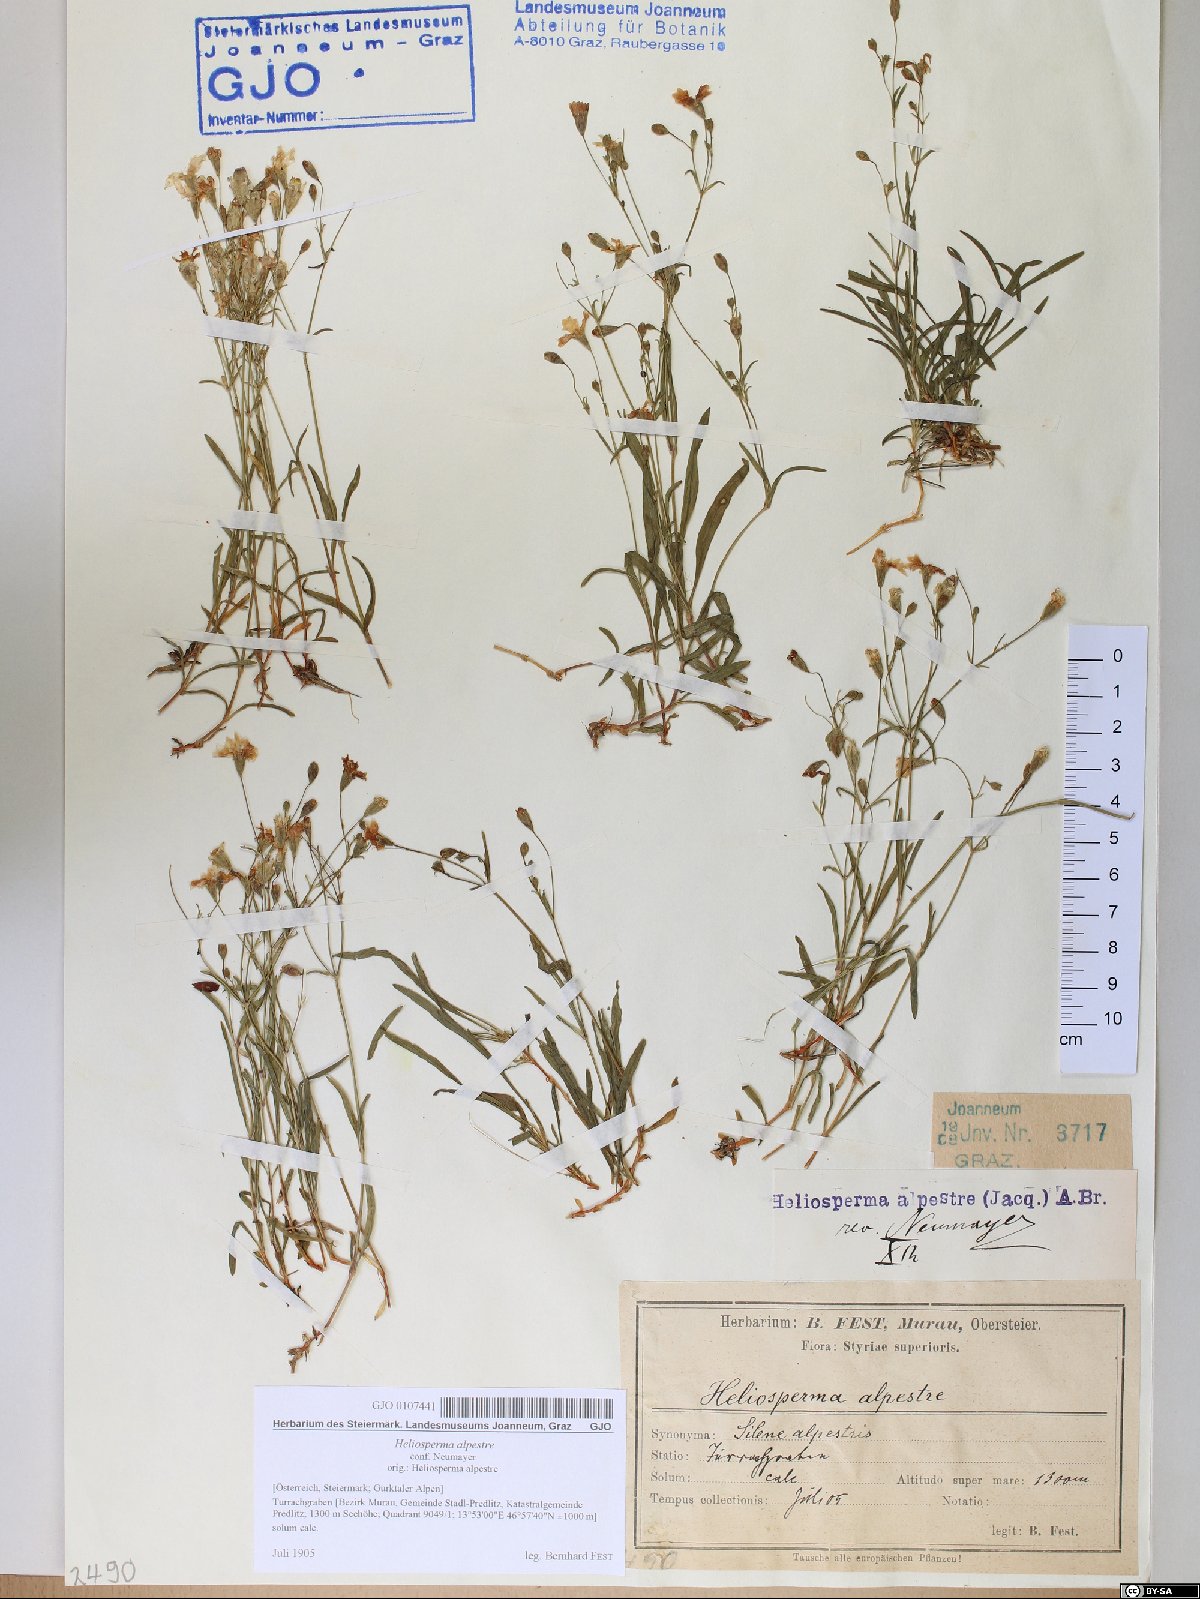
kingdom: Plantae
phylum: Tracheophyta
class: Magnoliopsida
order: Caryophyllales
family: Caryophyllaceae
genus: Heliosperma
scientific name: Heliosperma alpestre
